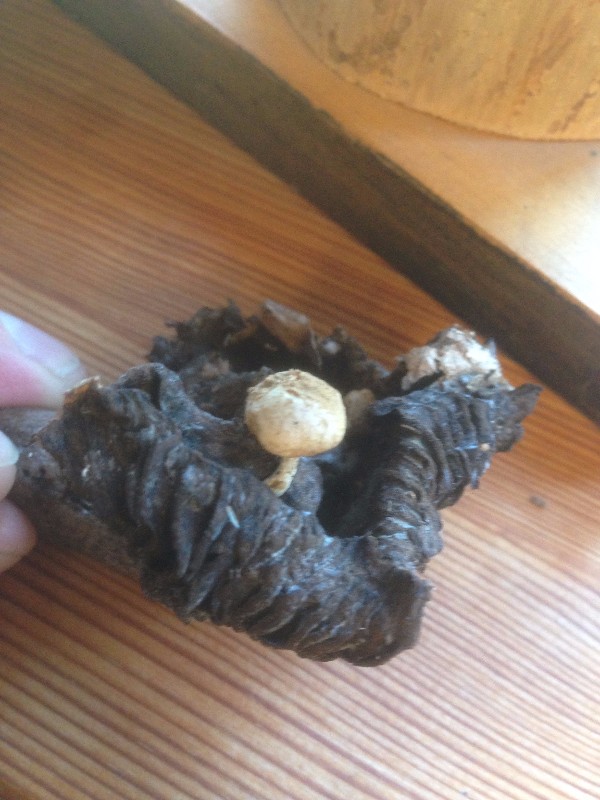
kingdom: Fungi
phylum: Basidiomycota
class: Agaricomycetes
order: Agaricales
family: Lyophyllaceae
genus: Asterophora
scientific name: Asterophora lycoperdoides
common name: brunpudret snyltehat
